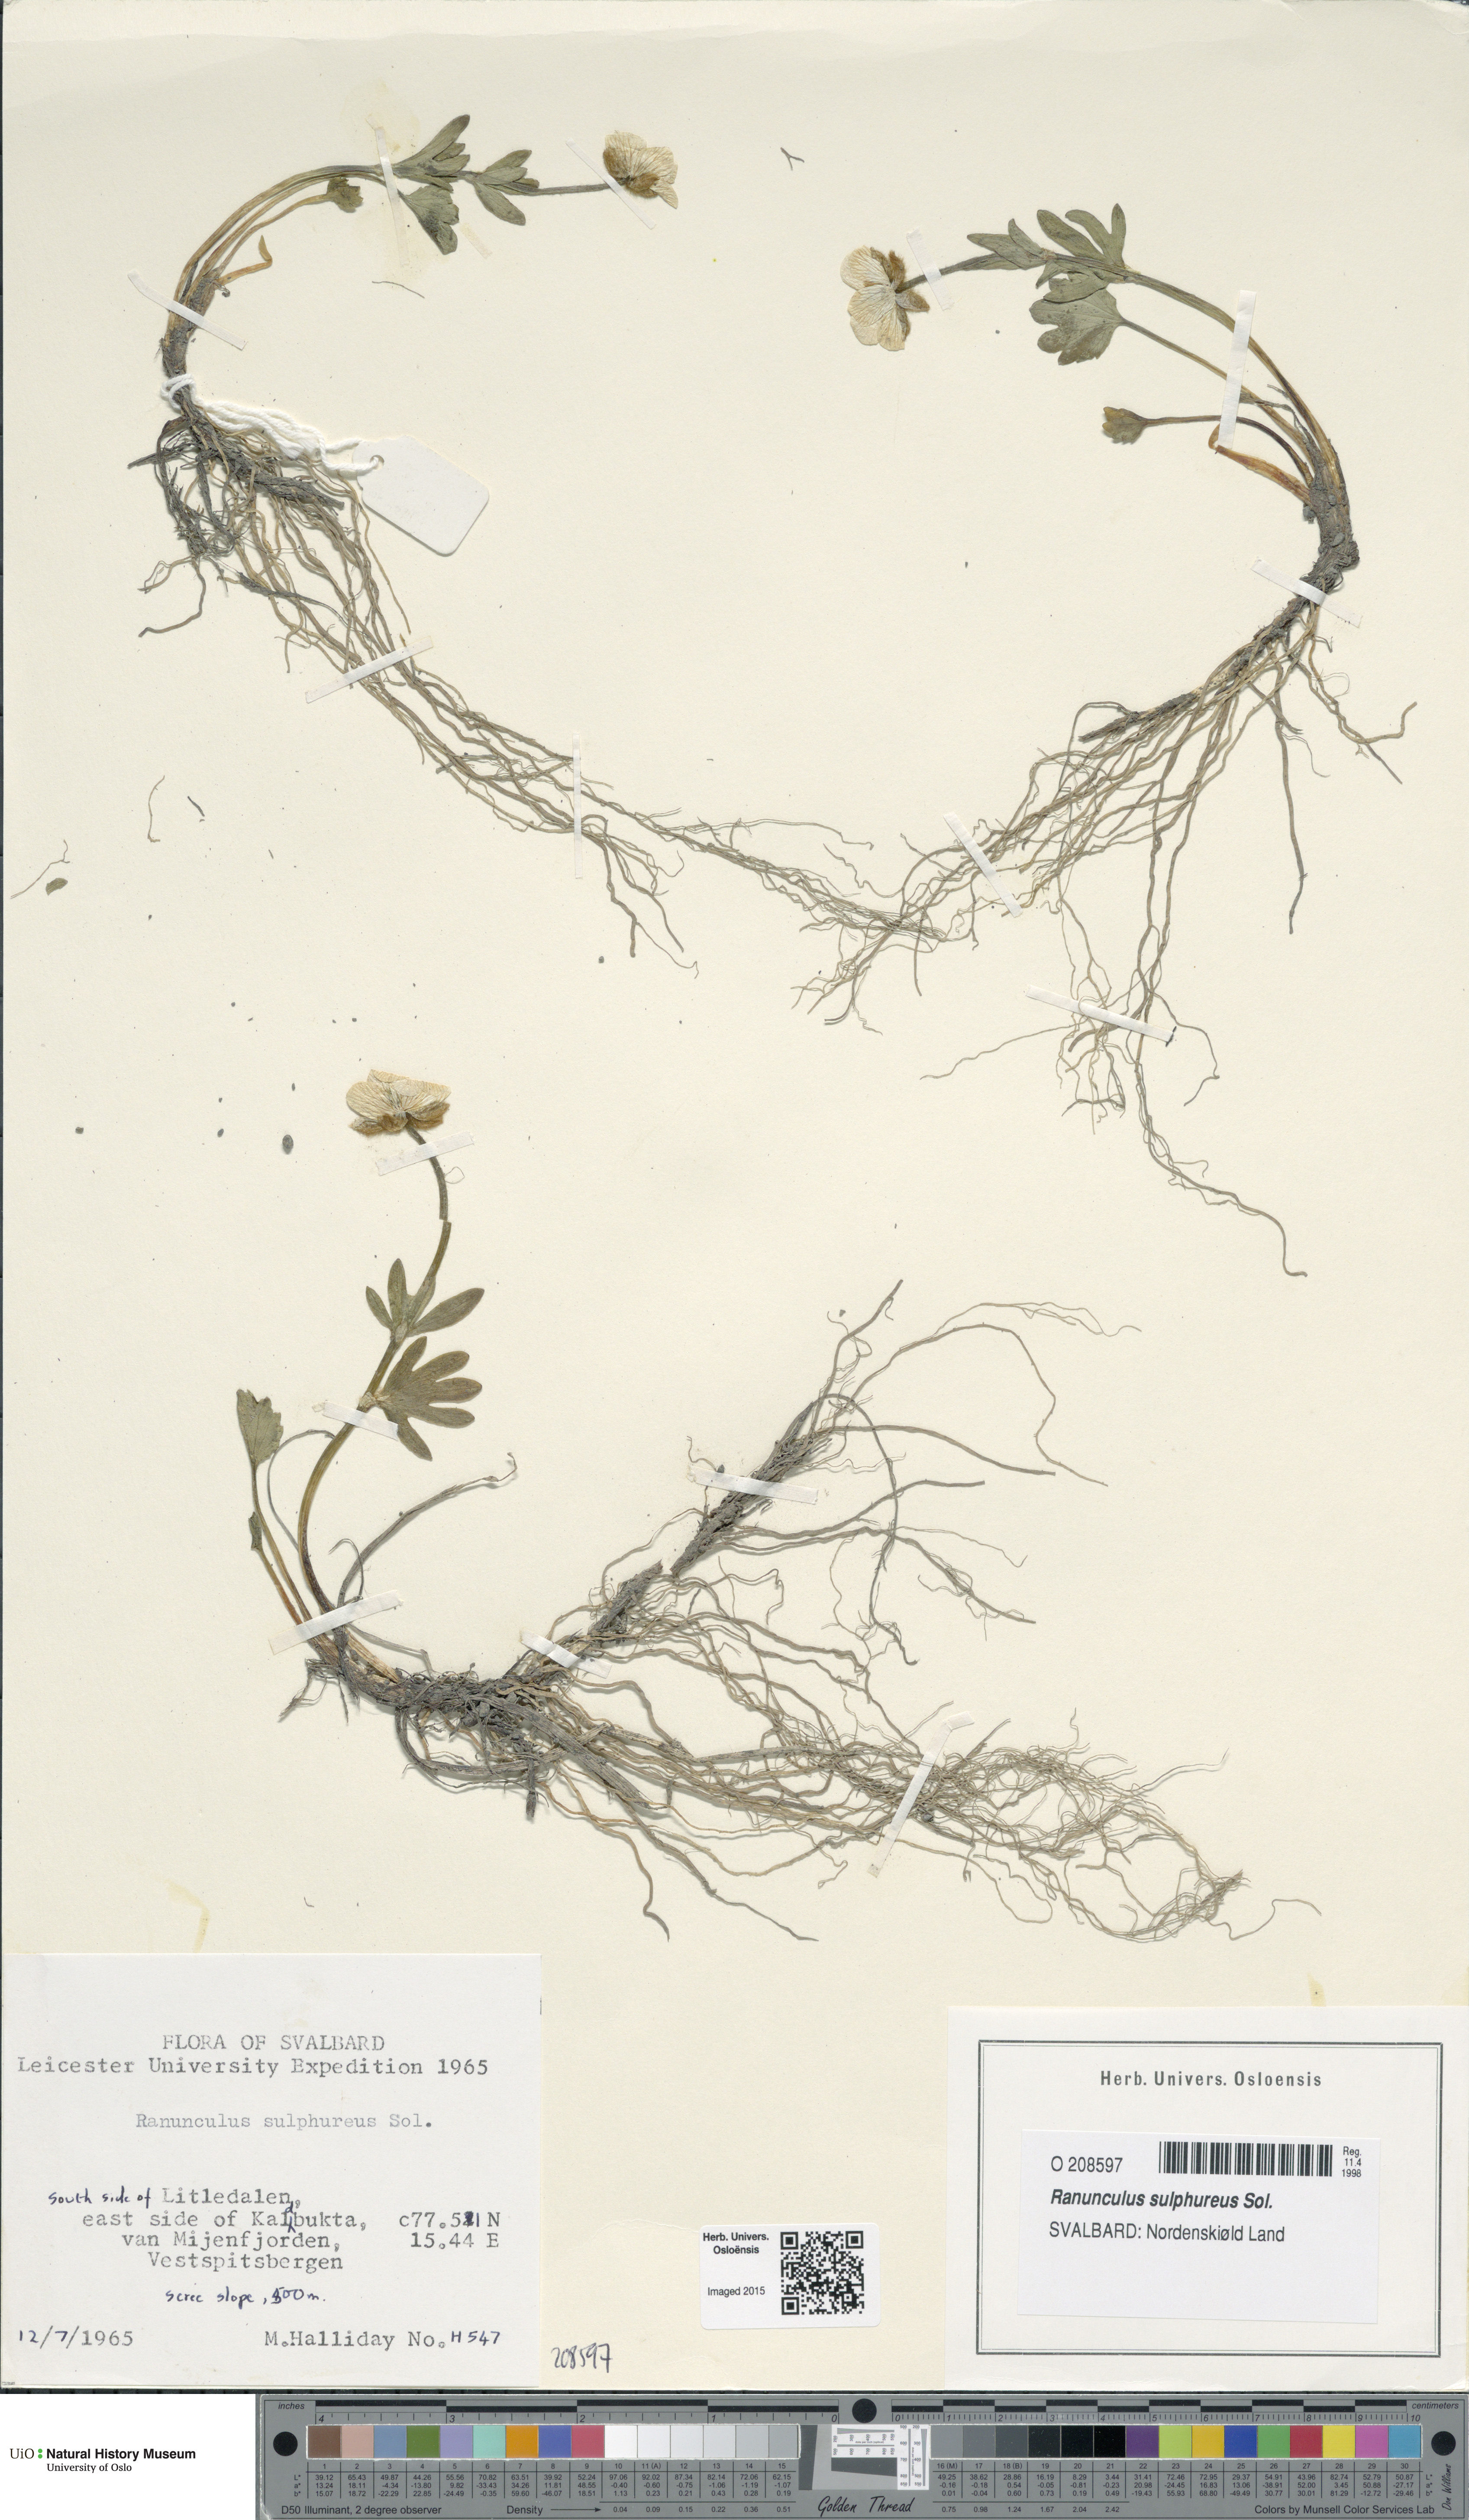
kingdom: Plantae
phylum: Tracheophyta
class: Magnoliopsida
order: Ranunculales
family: Ranunculaceae
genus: Ranunculus
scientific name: Ranunculus sulphureus
